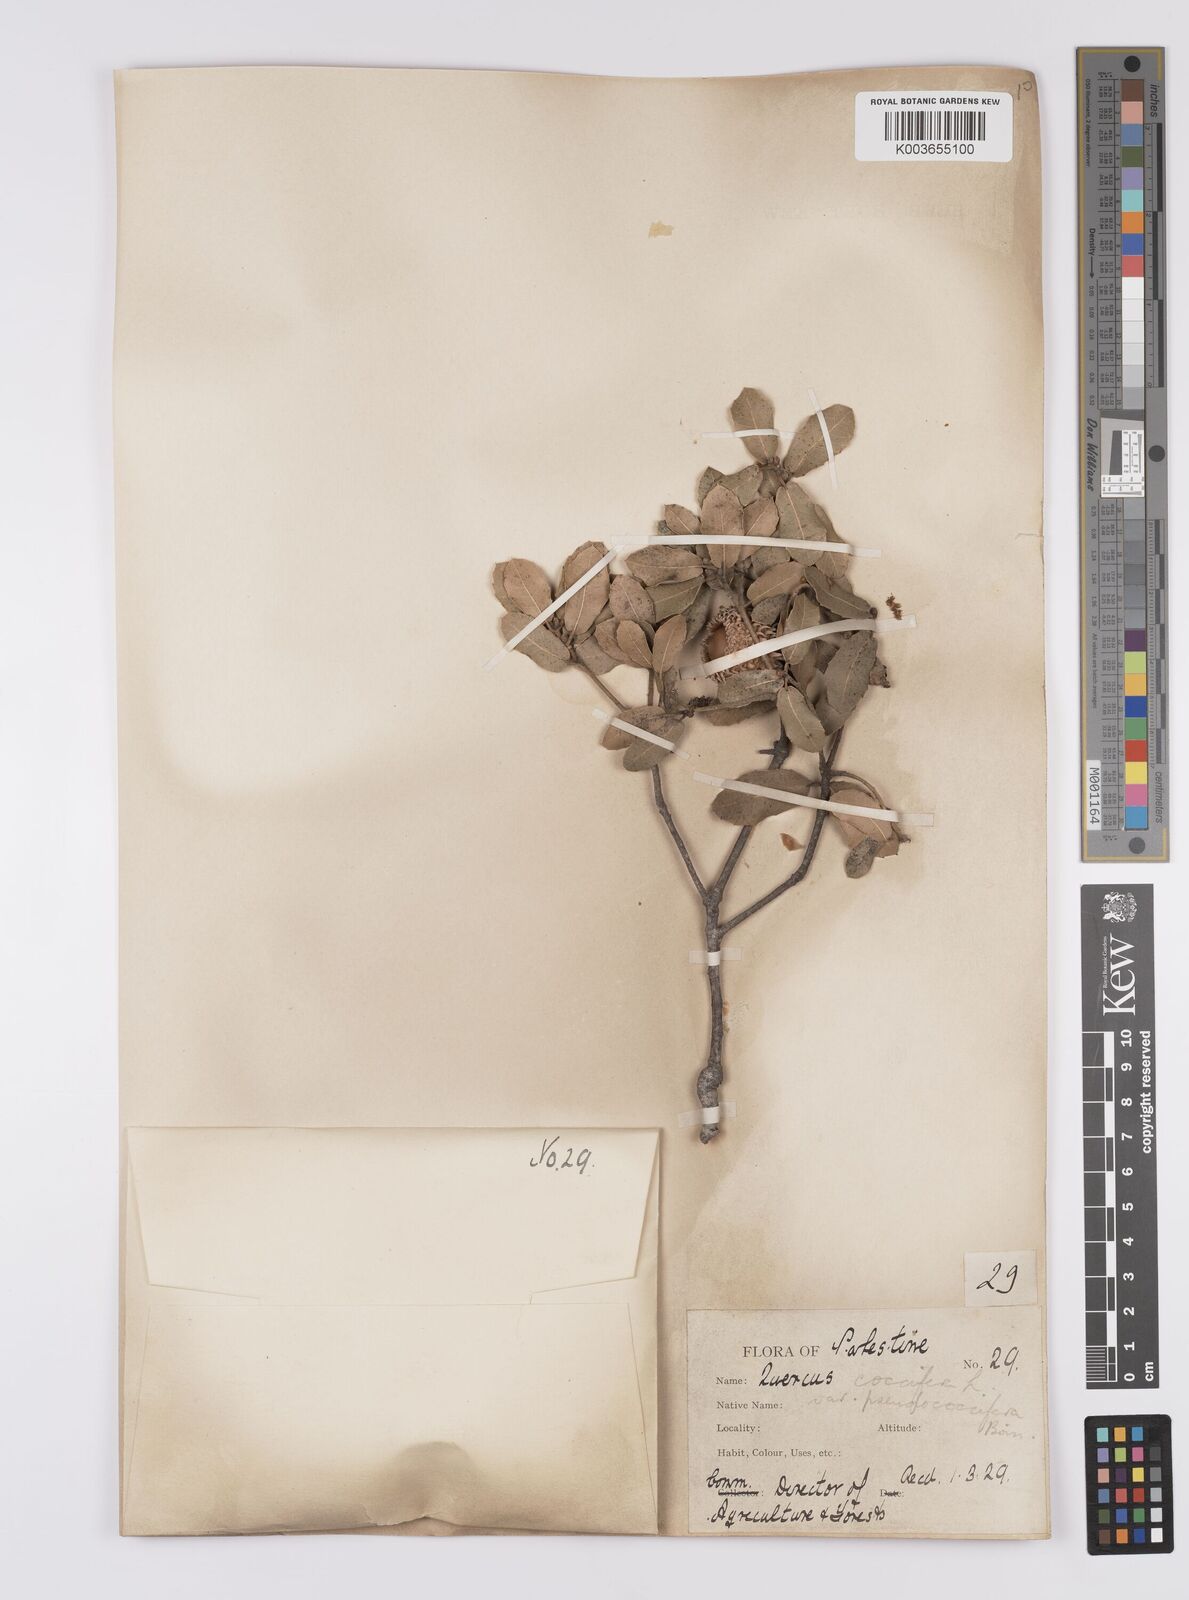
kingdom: Plantae
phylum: Tracheophyta
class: Magnoliopsida
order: Fagales
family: Fagaceae
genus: Quercus
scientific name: Quercus coccifera
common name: Kermes oak
